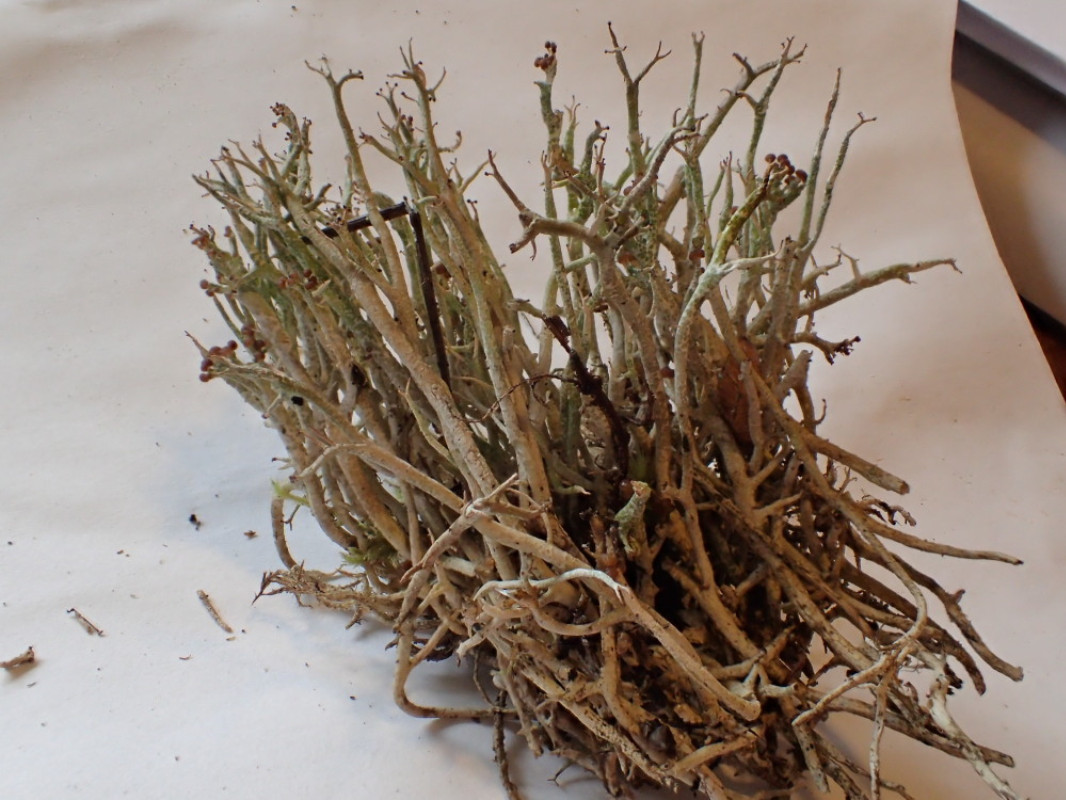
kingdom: Fungi
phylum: Ascomycota
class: Lecanoromycetes
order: Lecanorales
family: Cladoniaceae
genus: Cladonia
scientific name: Cladonia furcata
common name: kløftet bægerlav
